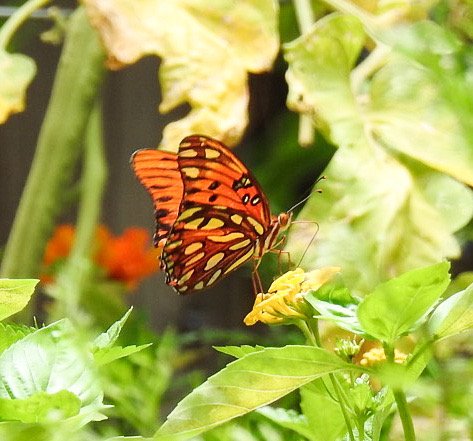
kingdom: Animalia
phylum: Arthropoda
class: Insecta
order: Lepidoptera
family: Nymphalidae
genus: Dione
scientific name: Dione vanillae
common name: Gulf Fritillary
